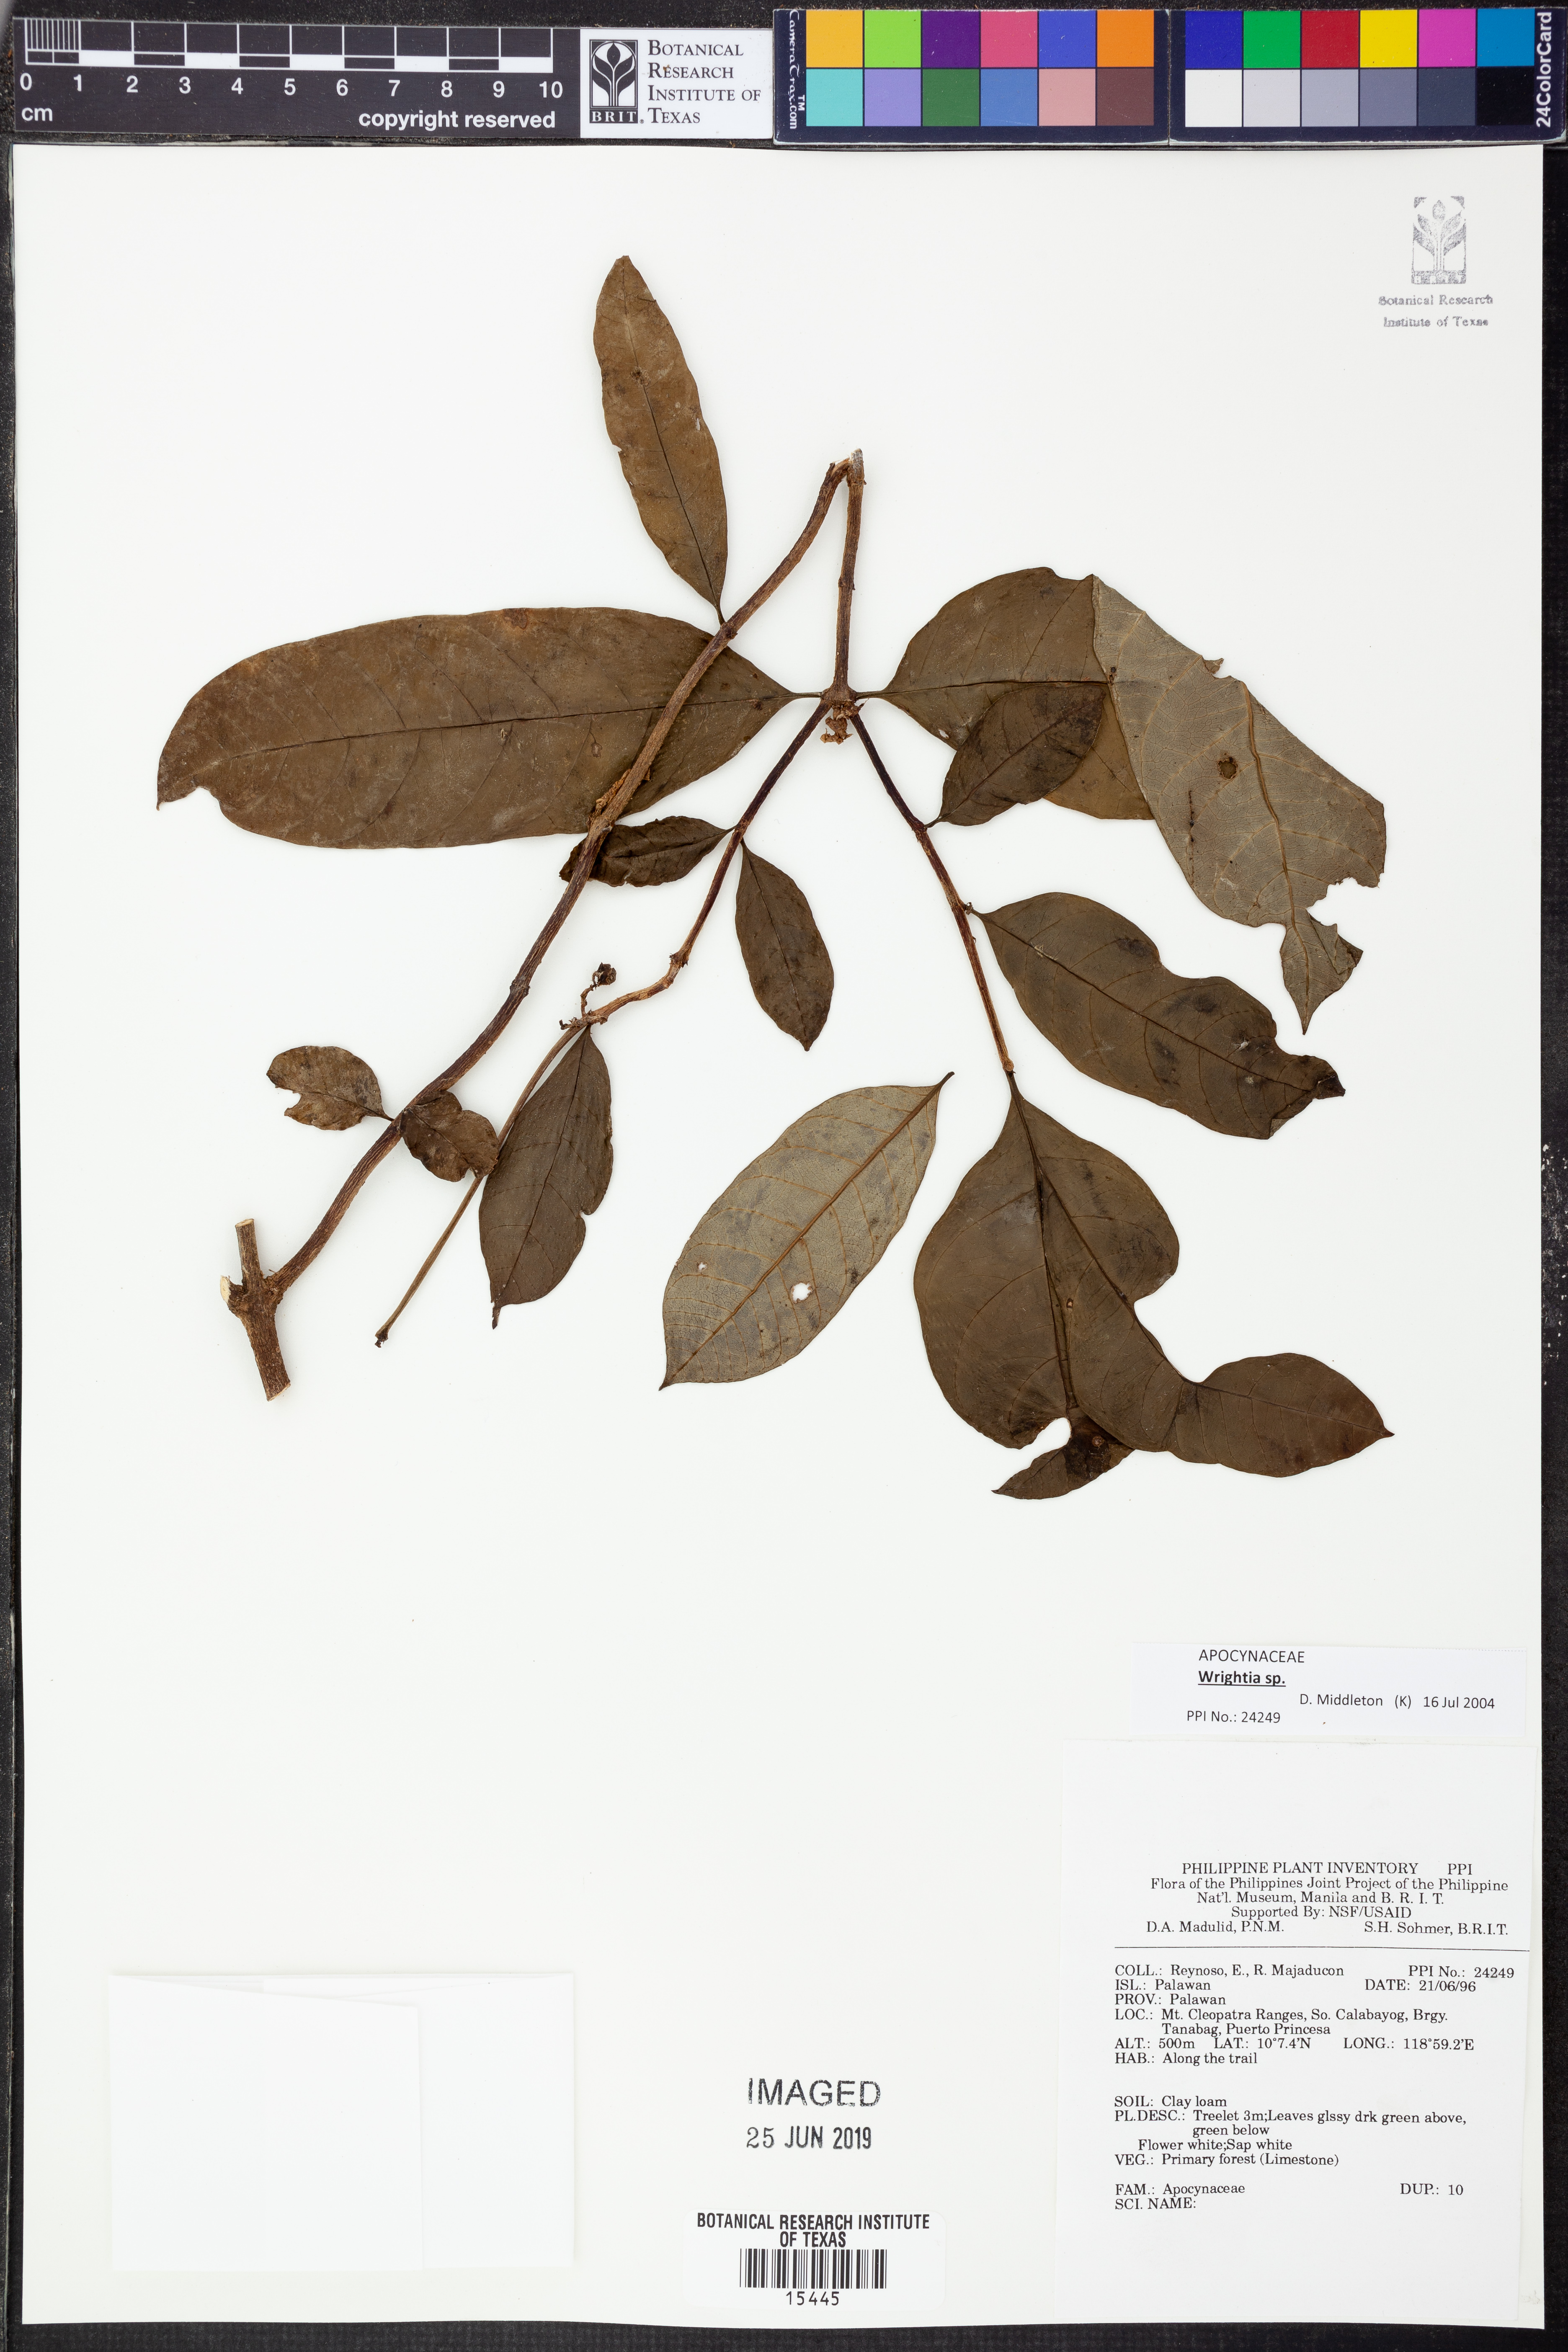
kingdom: Plantae
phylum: Tracheophyta
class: Magnoliopsida
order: Gentianales
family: Apocynaceae
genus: Wrightia
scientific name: Wrightia
